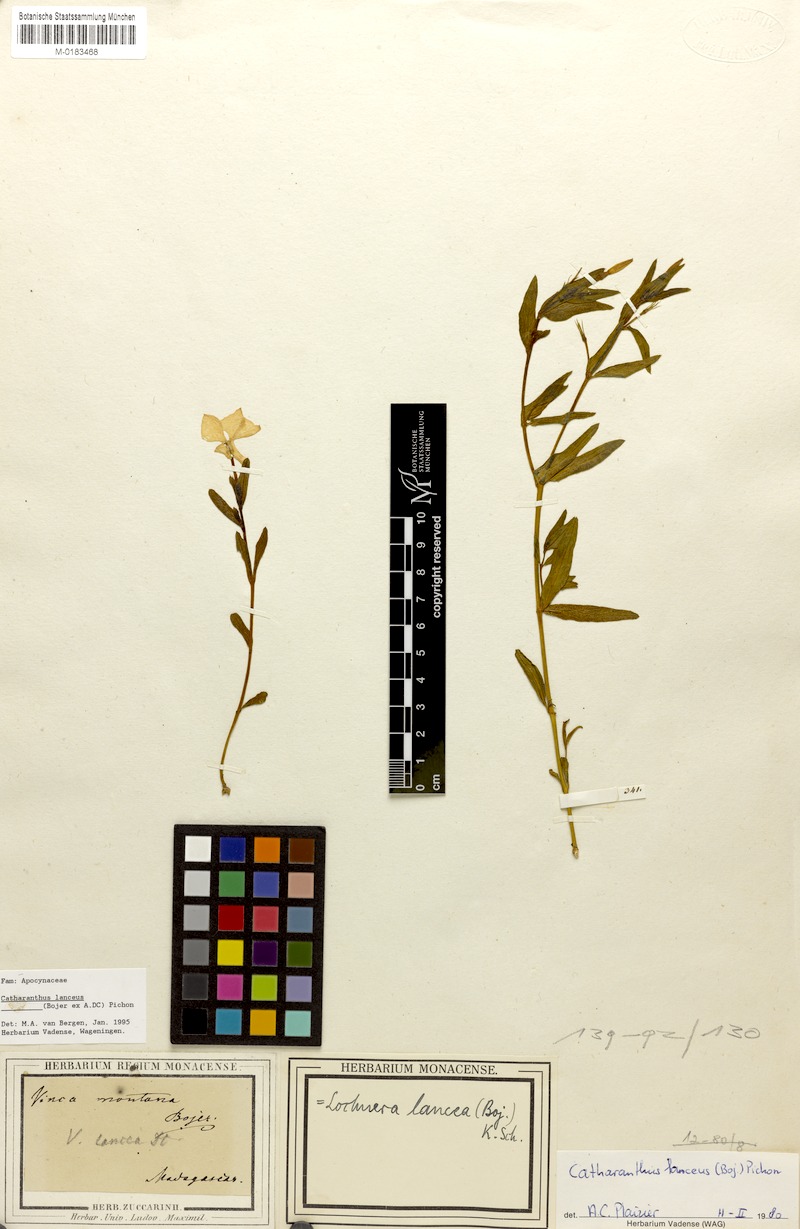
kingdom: Plantae
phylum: Tracheophyta
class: Magnoliopsida
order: Gentianales
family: Apocynaceae
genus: Catharanthus
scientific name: Catharanthus lanceus
